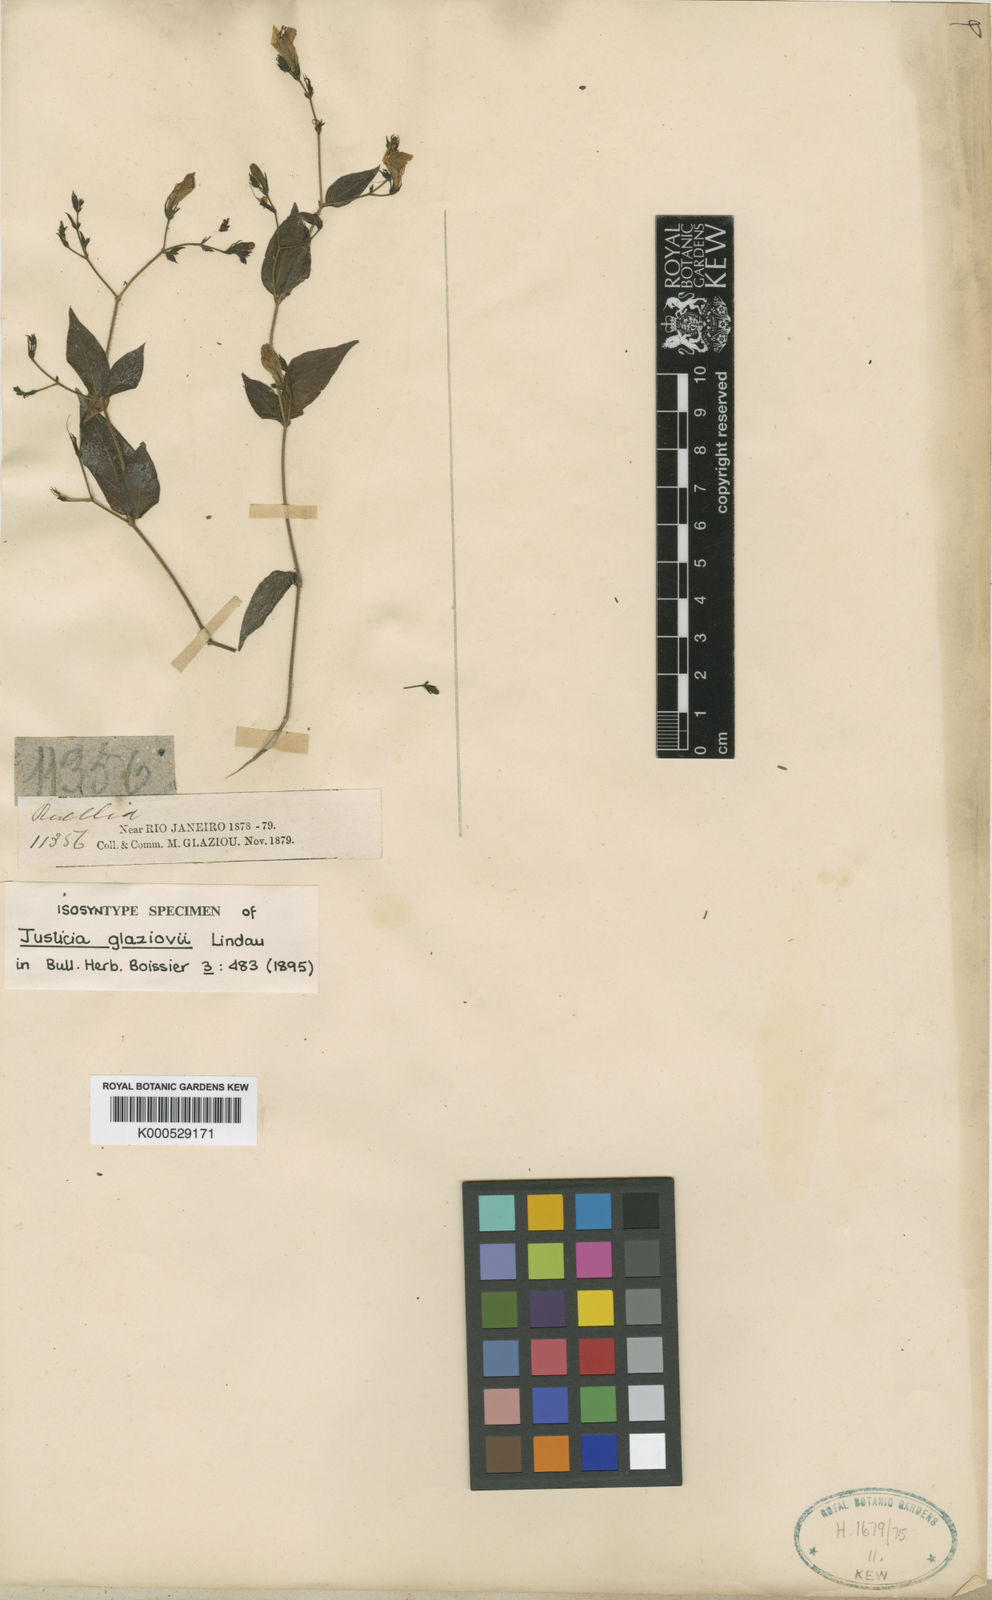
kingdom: Plantae
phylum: Tracheophyta
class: Magnoliopsida
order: Lamiales
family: Acanthaceae
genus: Justicia
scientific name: Justicia rubriflora
